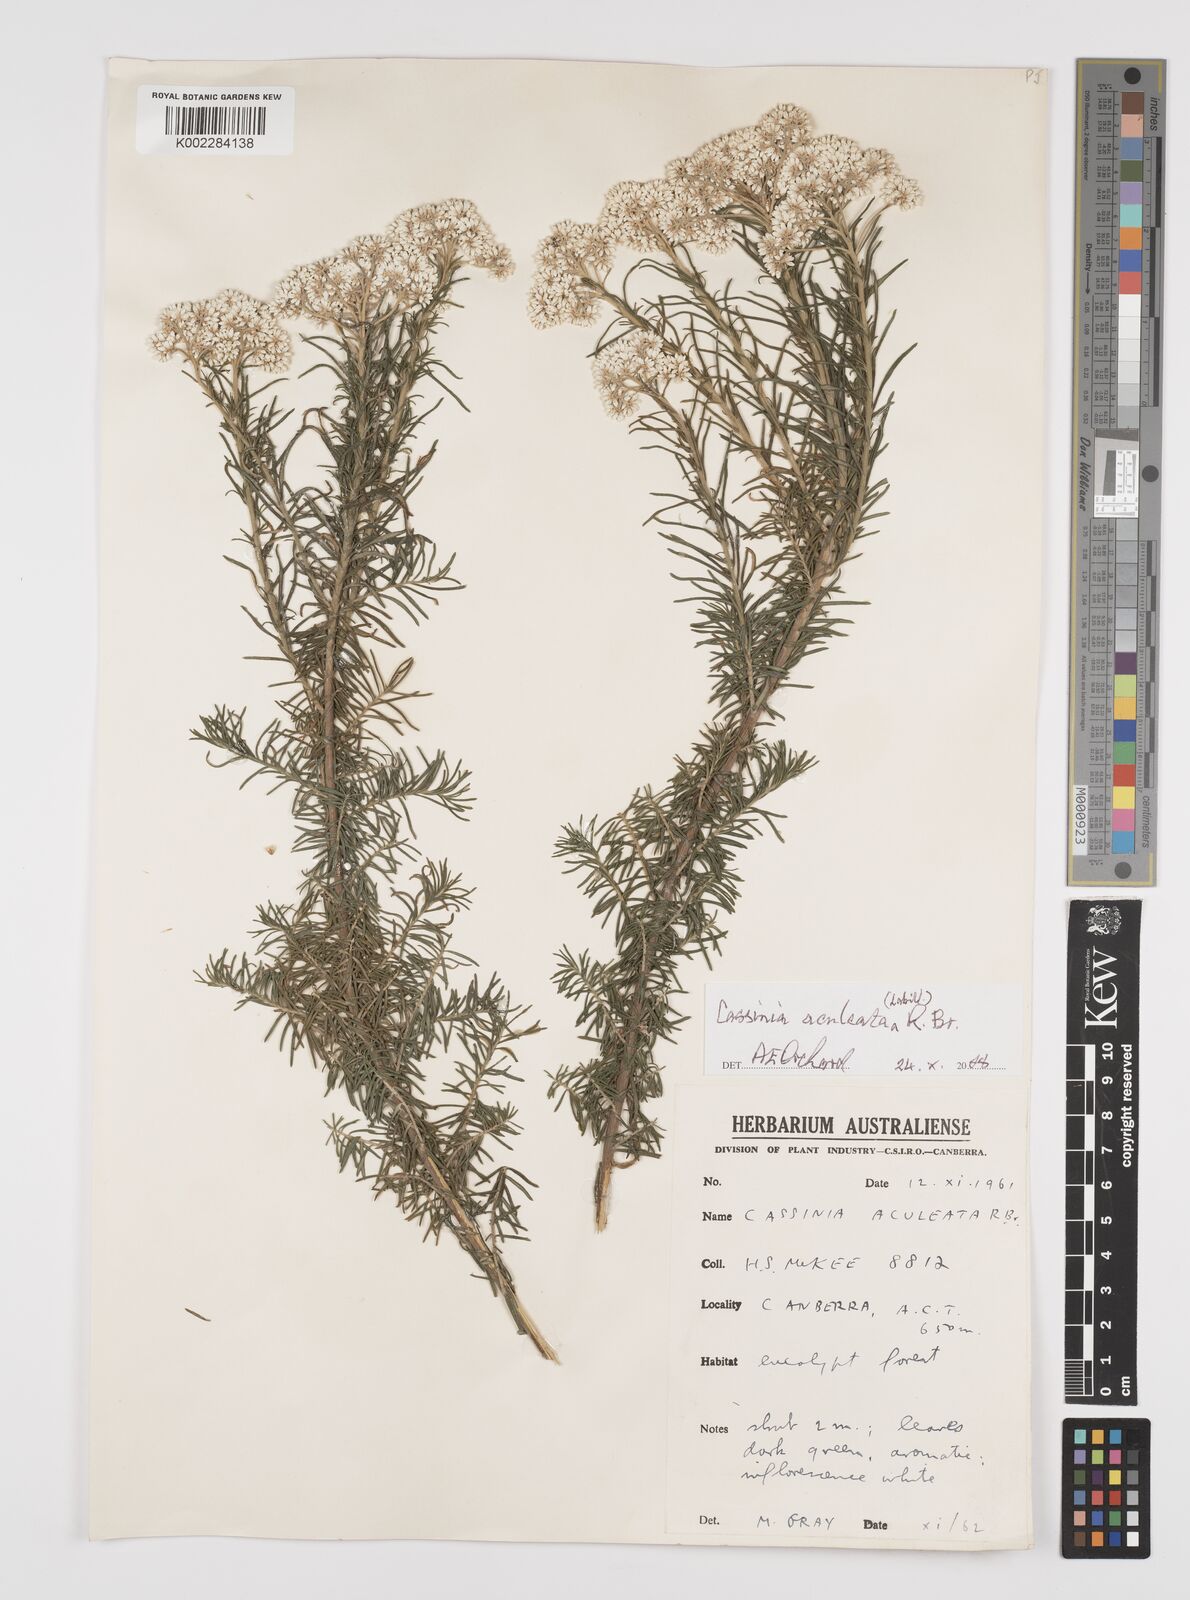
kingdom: Plantae
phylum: Tracheophyta
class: Magnoliopsida
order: Asterales
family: Asteraceae
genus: Cassinia
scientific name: Cassinia aculeata
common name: Australian tauhinu
